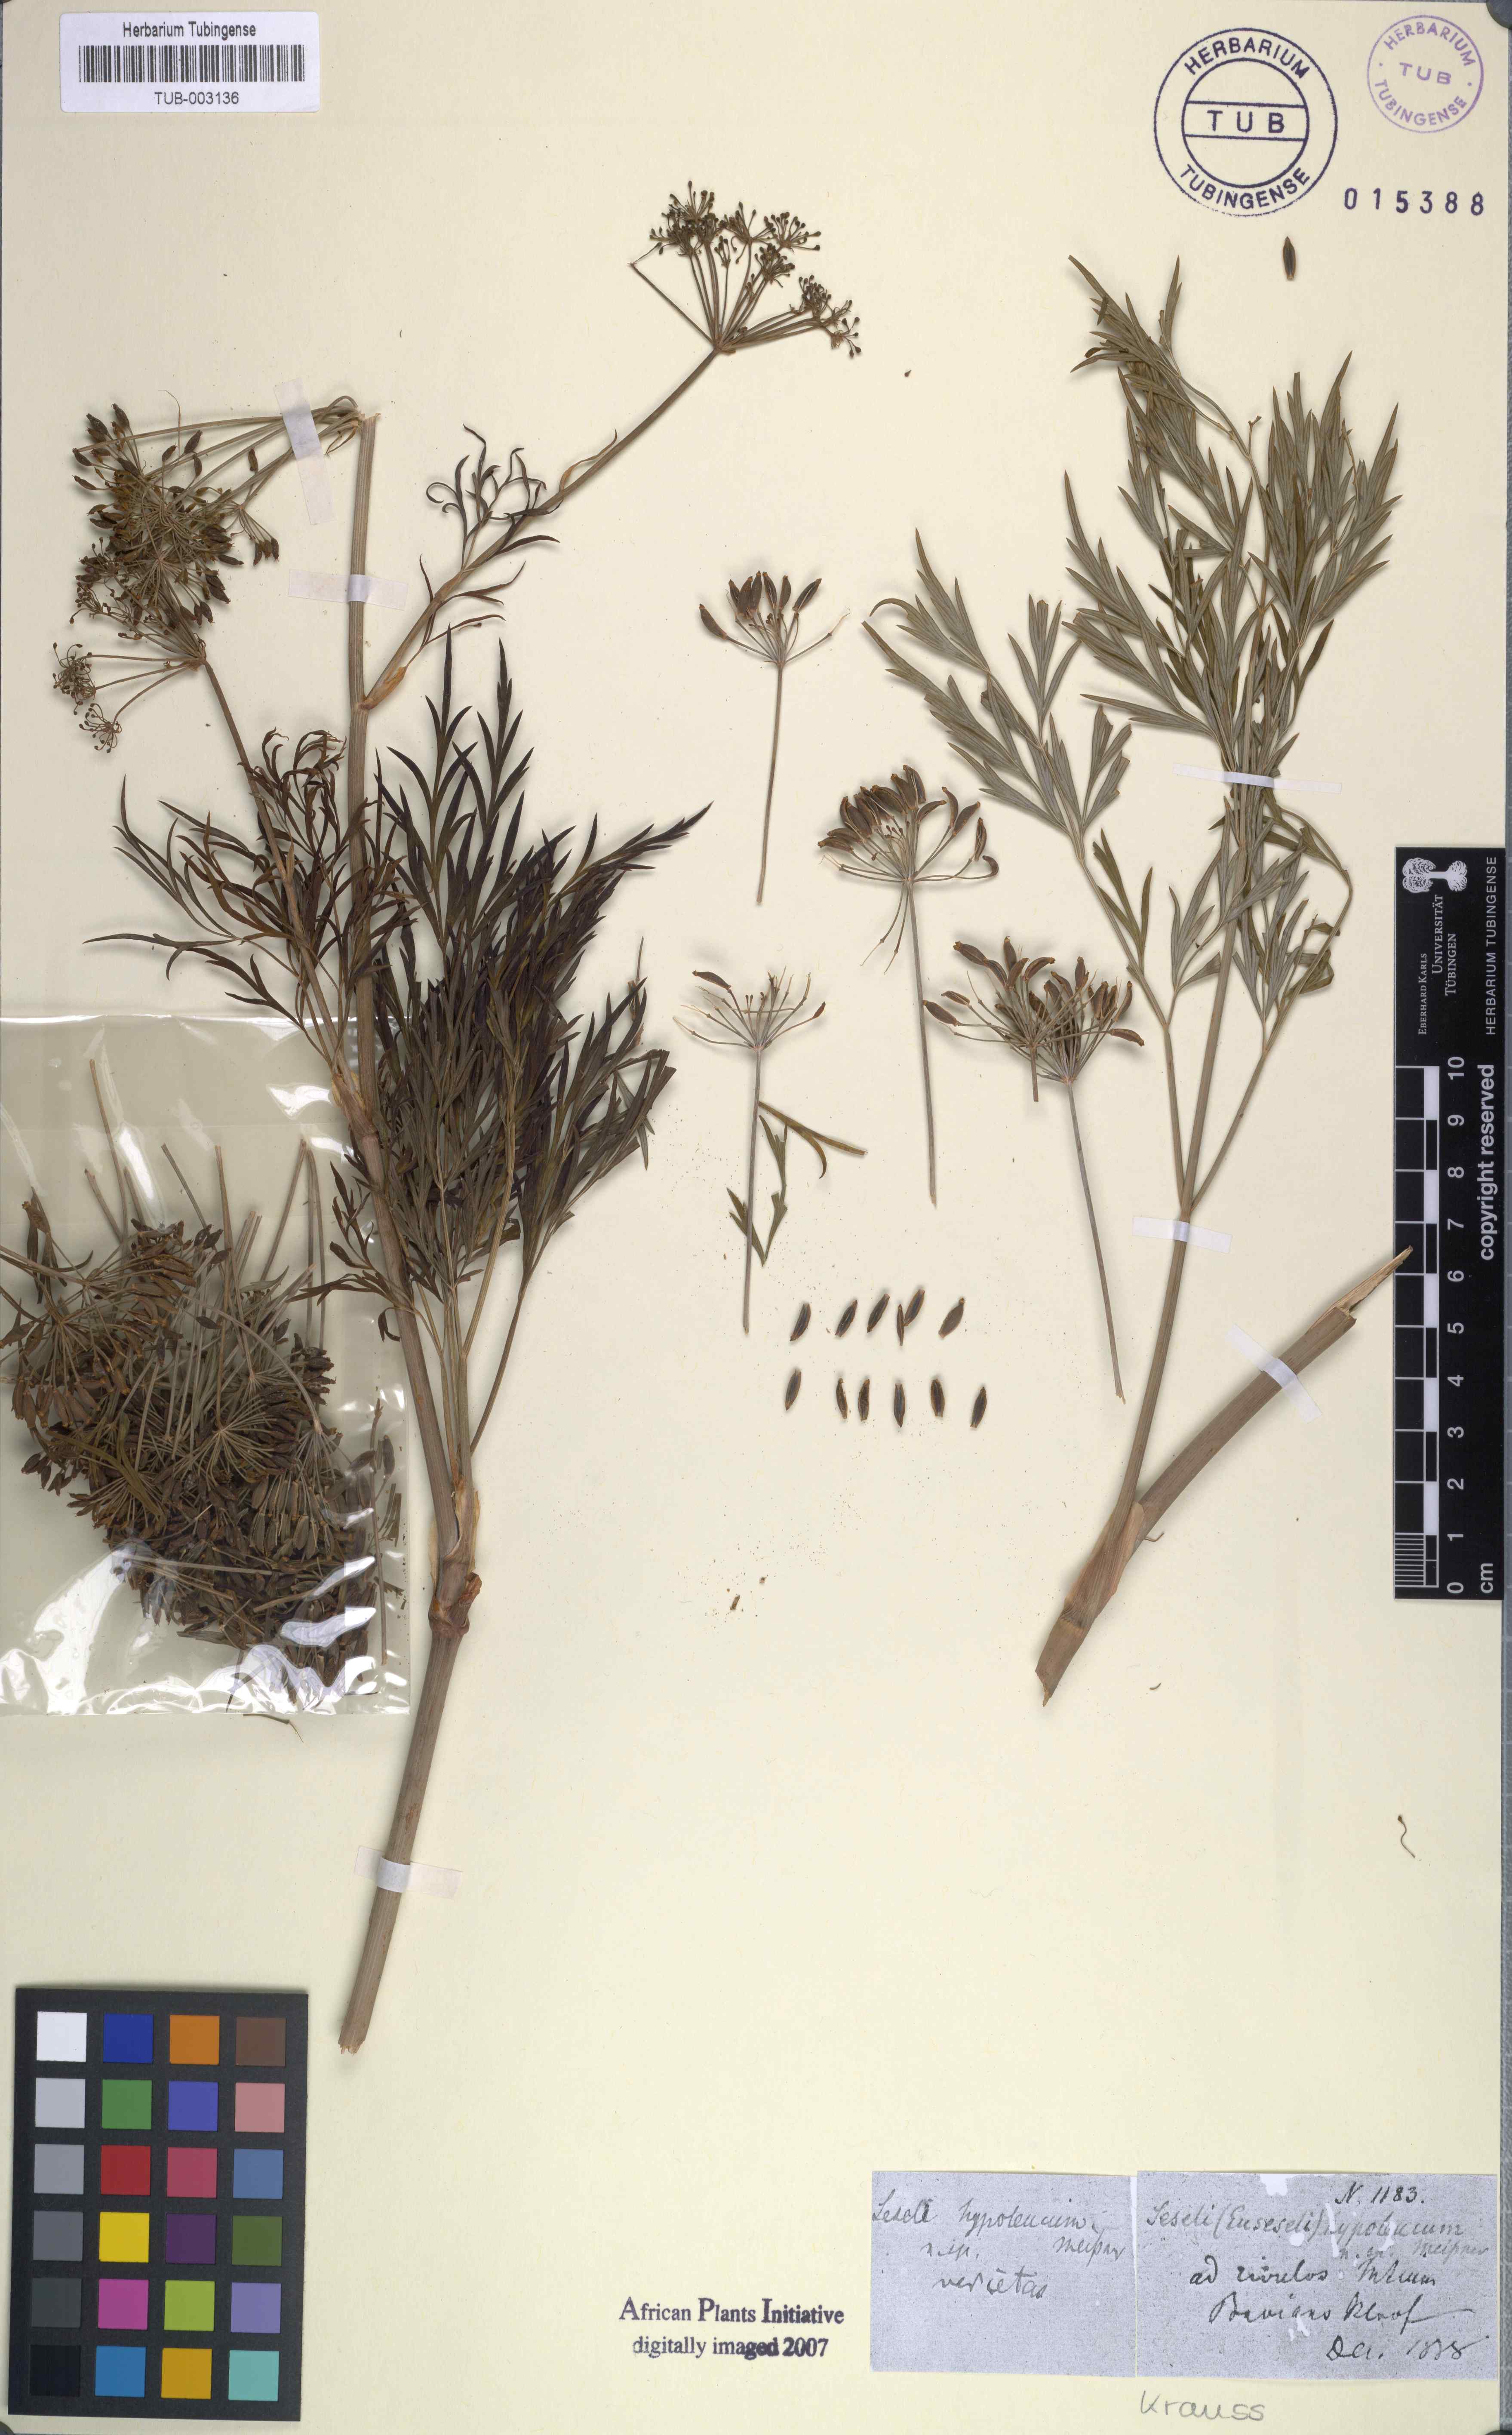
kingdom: Plantae
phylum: Tracheophyta
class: Magnoliopsida
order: Apiales
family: Apiaceae
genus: Notobubon
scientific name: Notobubon gummiferum
